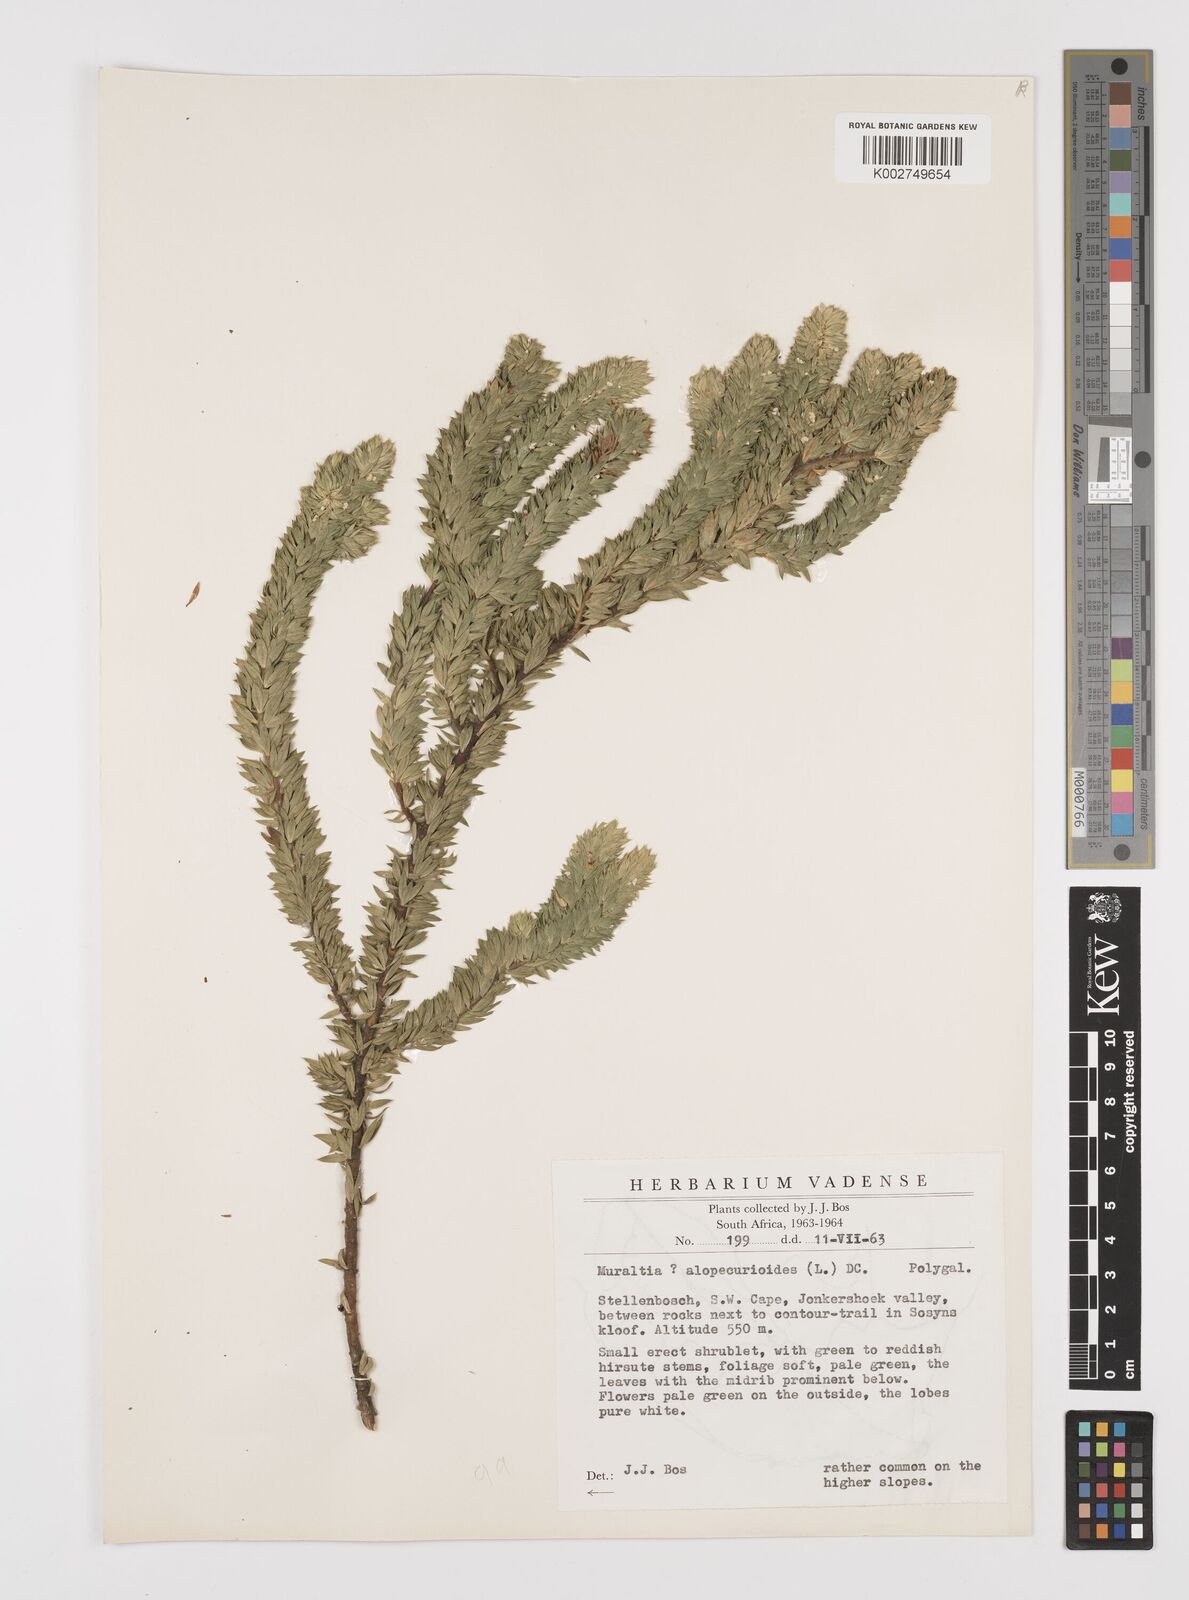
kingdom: Plantae
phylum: Tracheophyta
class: Magnoliopsida
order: Fabales
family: Polygalaceae
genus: Muraltia
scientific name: Muraltia alopecuroides
